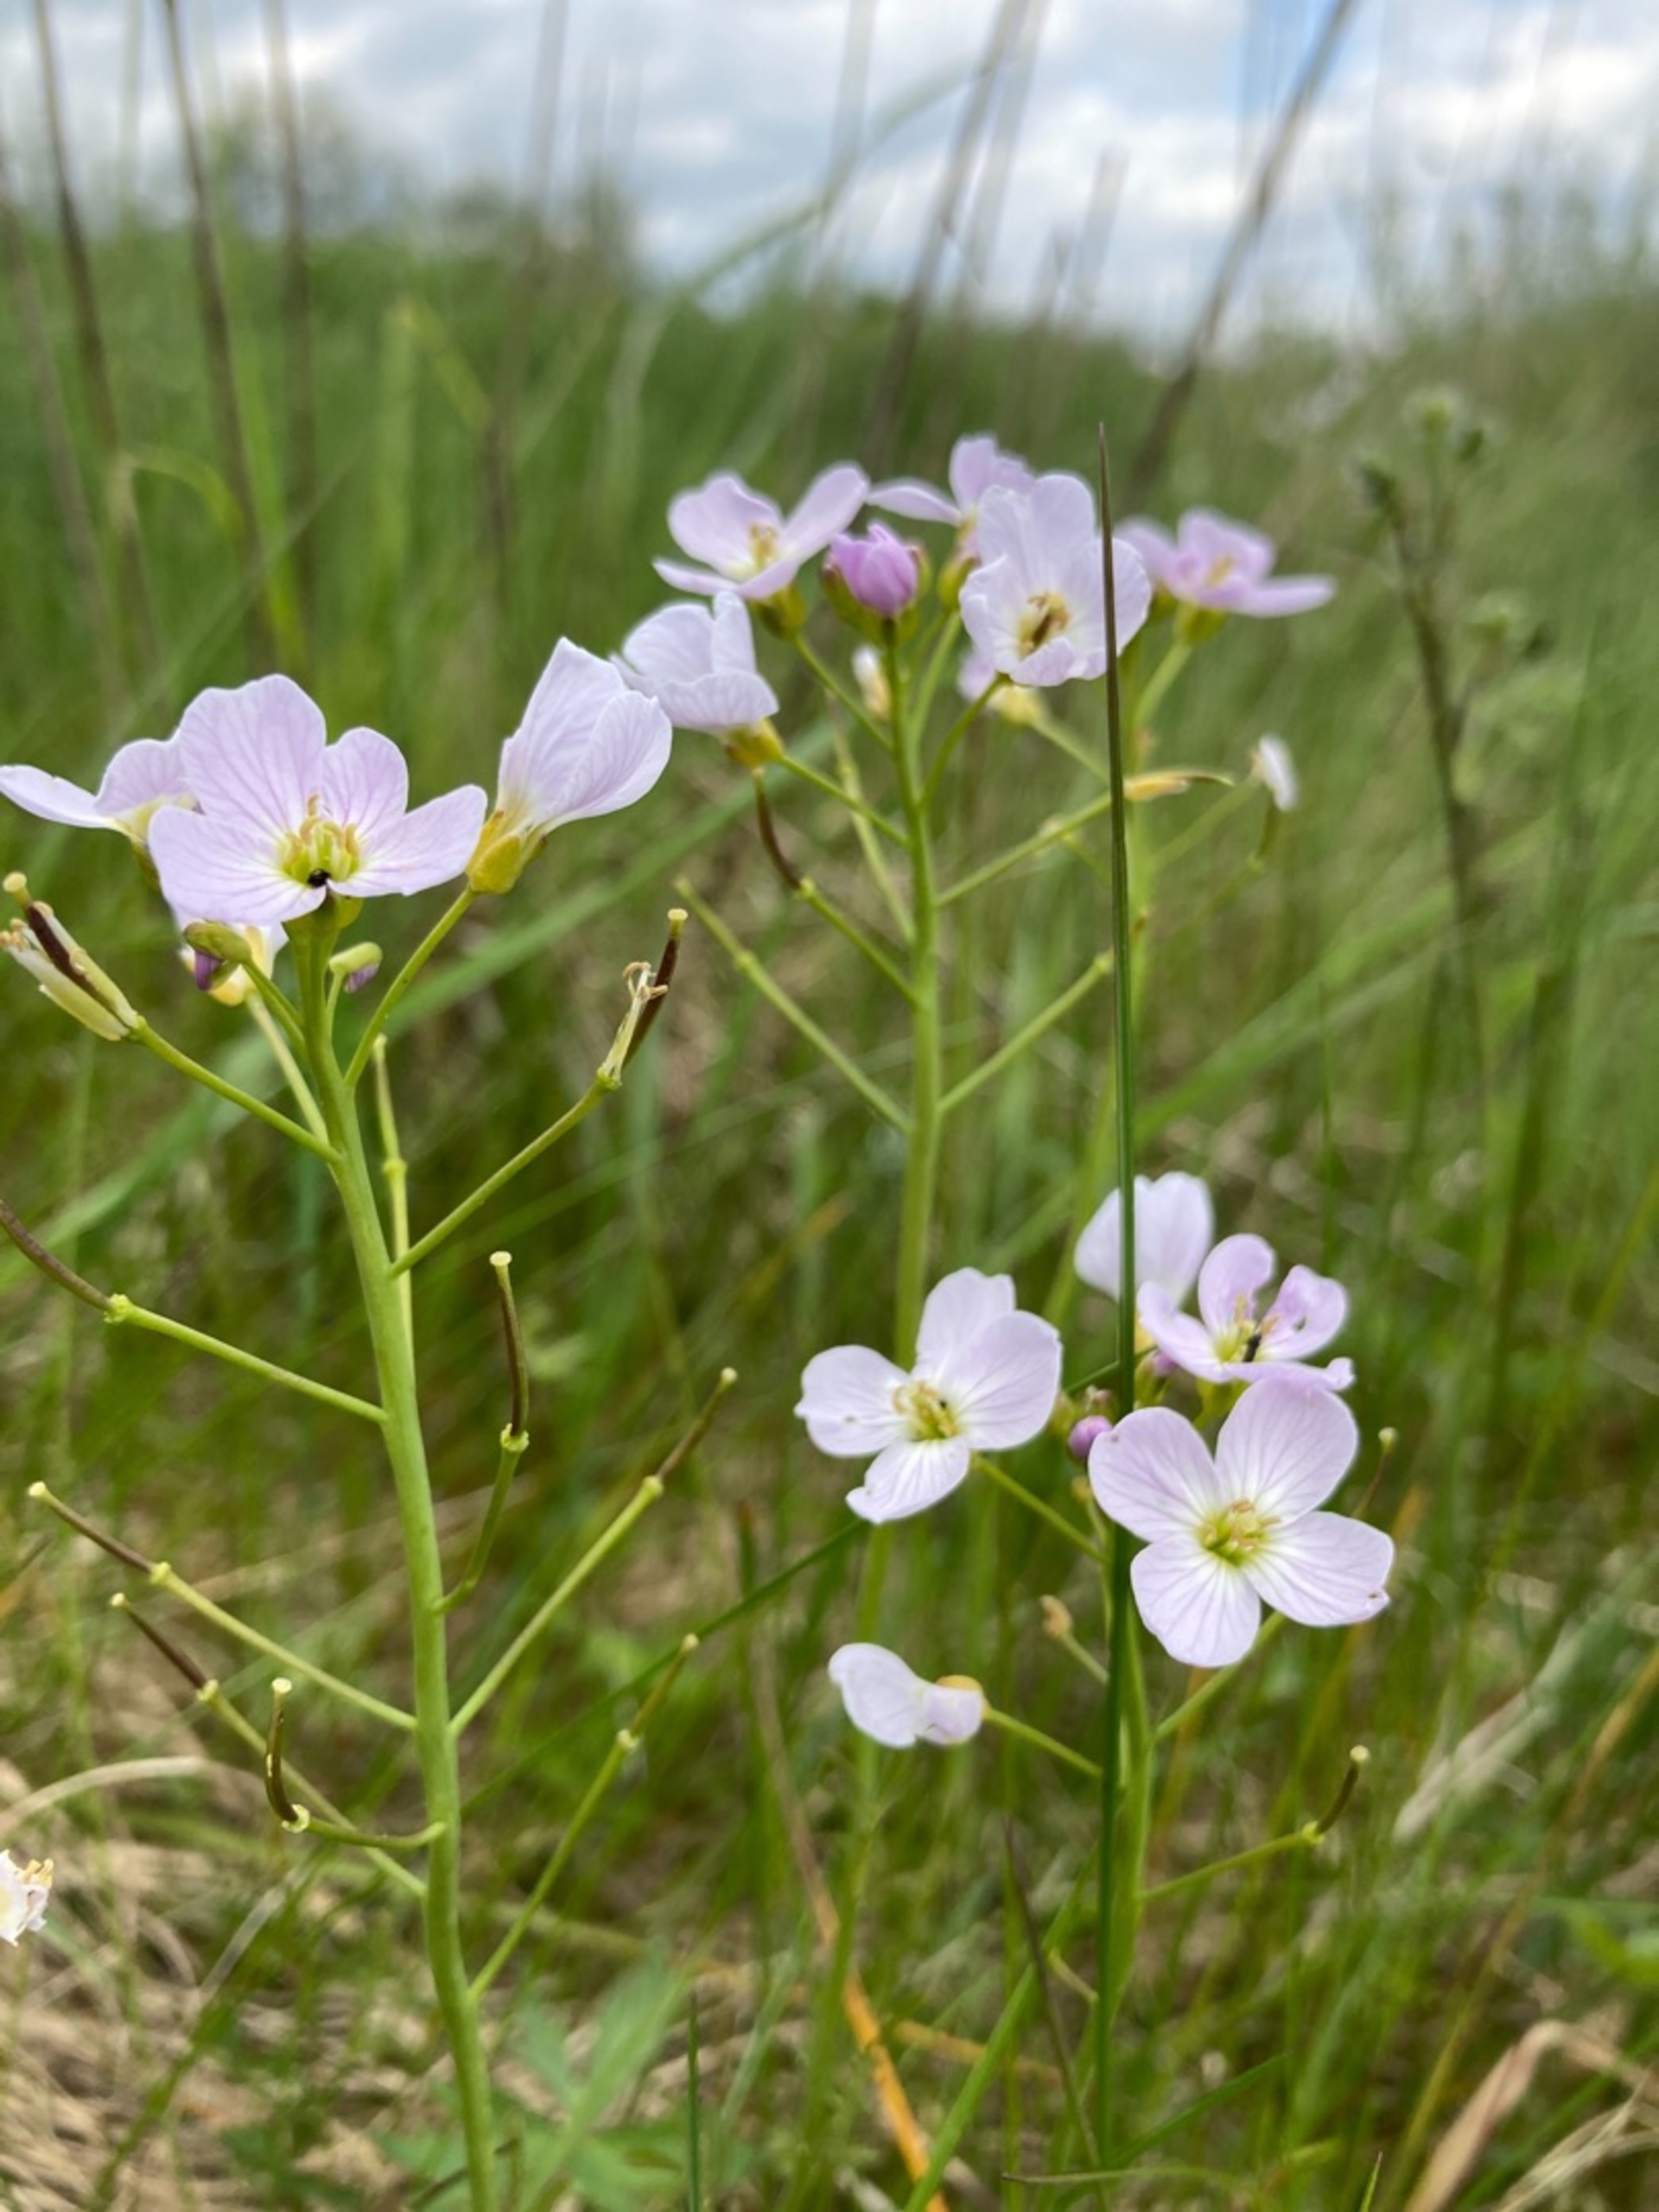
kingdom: Plantae
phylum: Tracheophyta
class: Magnoliopsida
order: Brassicales
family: Brassicaceae
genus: Cardamine
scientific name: Cardamine pratensis
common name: Engkarse
